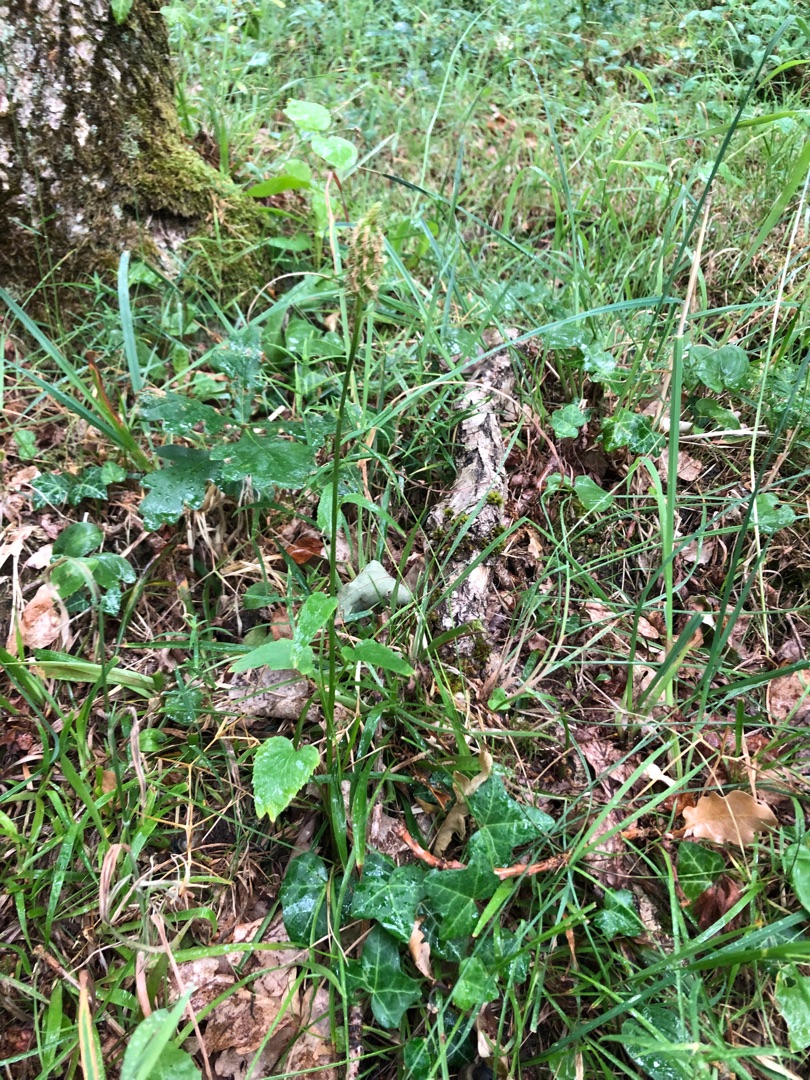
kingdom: Plantae
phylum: Tracheophyta
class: Magnoliopsida
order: Asterales
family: Campanulaceae
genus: Phyteuma
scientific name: Phyteuma spicatum
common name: Aks-rapunsel
